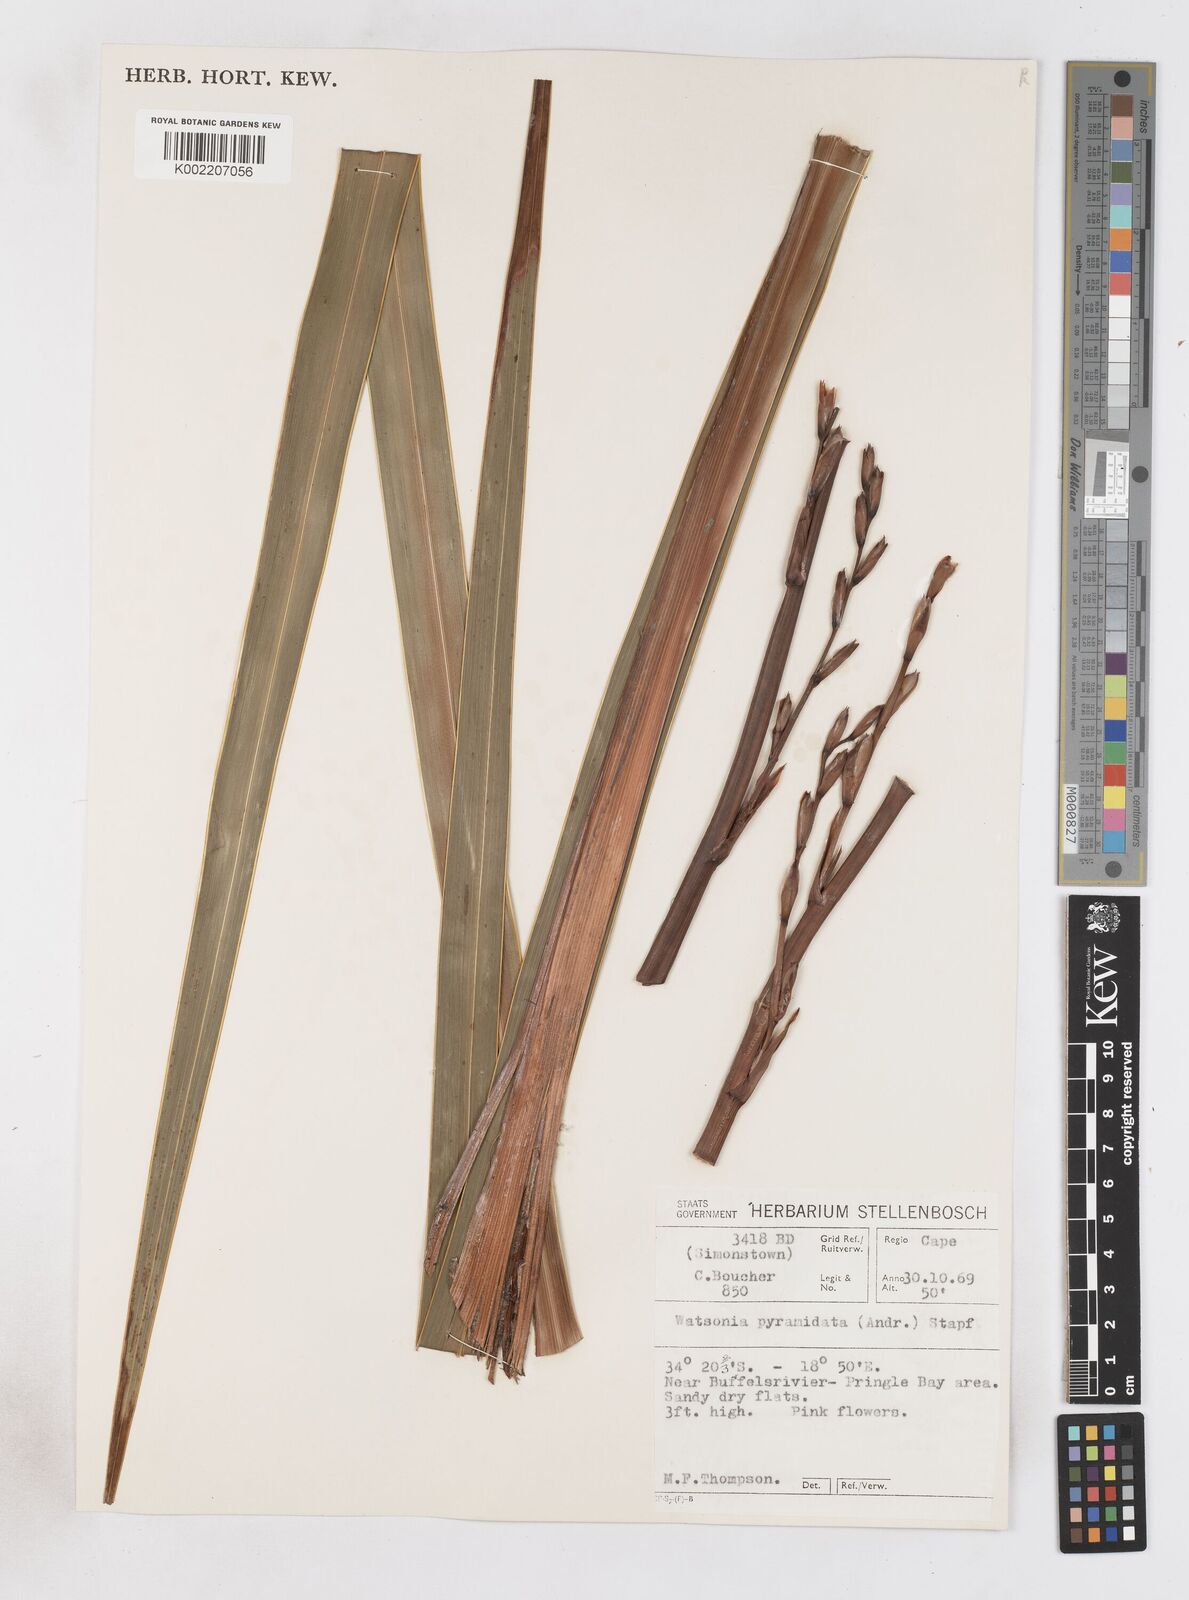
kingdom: Plantae
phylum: Tracheophyta
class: Liliopsida
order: Asparagales
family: Iridaceae
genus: Watsonia
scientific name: Watsonia borbonica
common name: Bugle-lily
